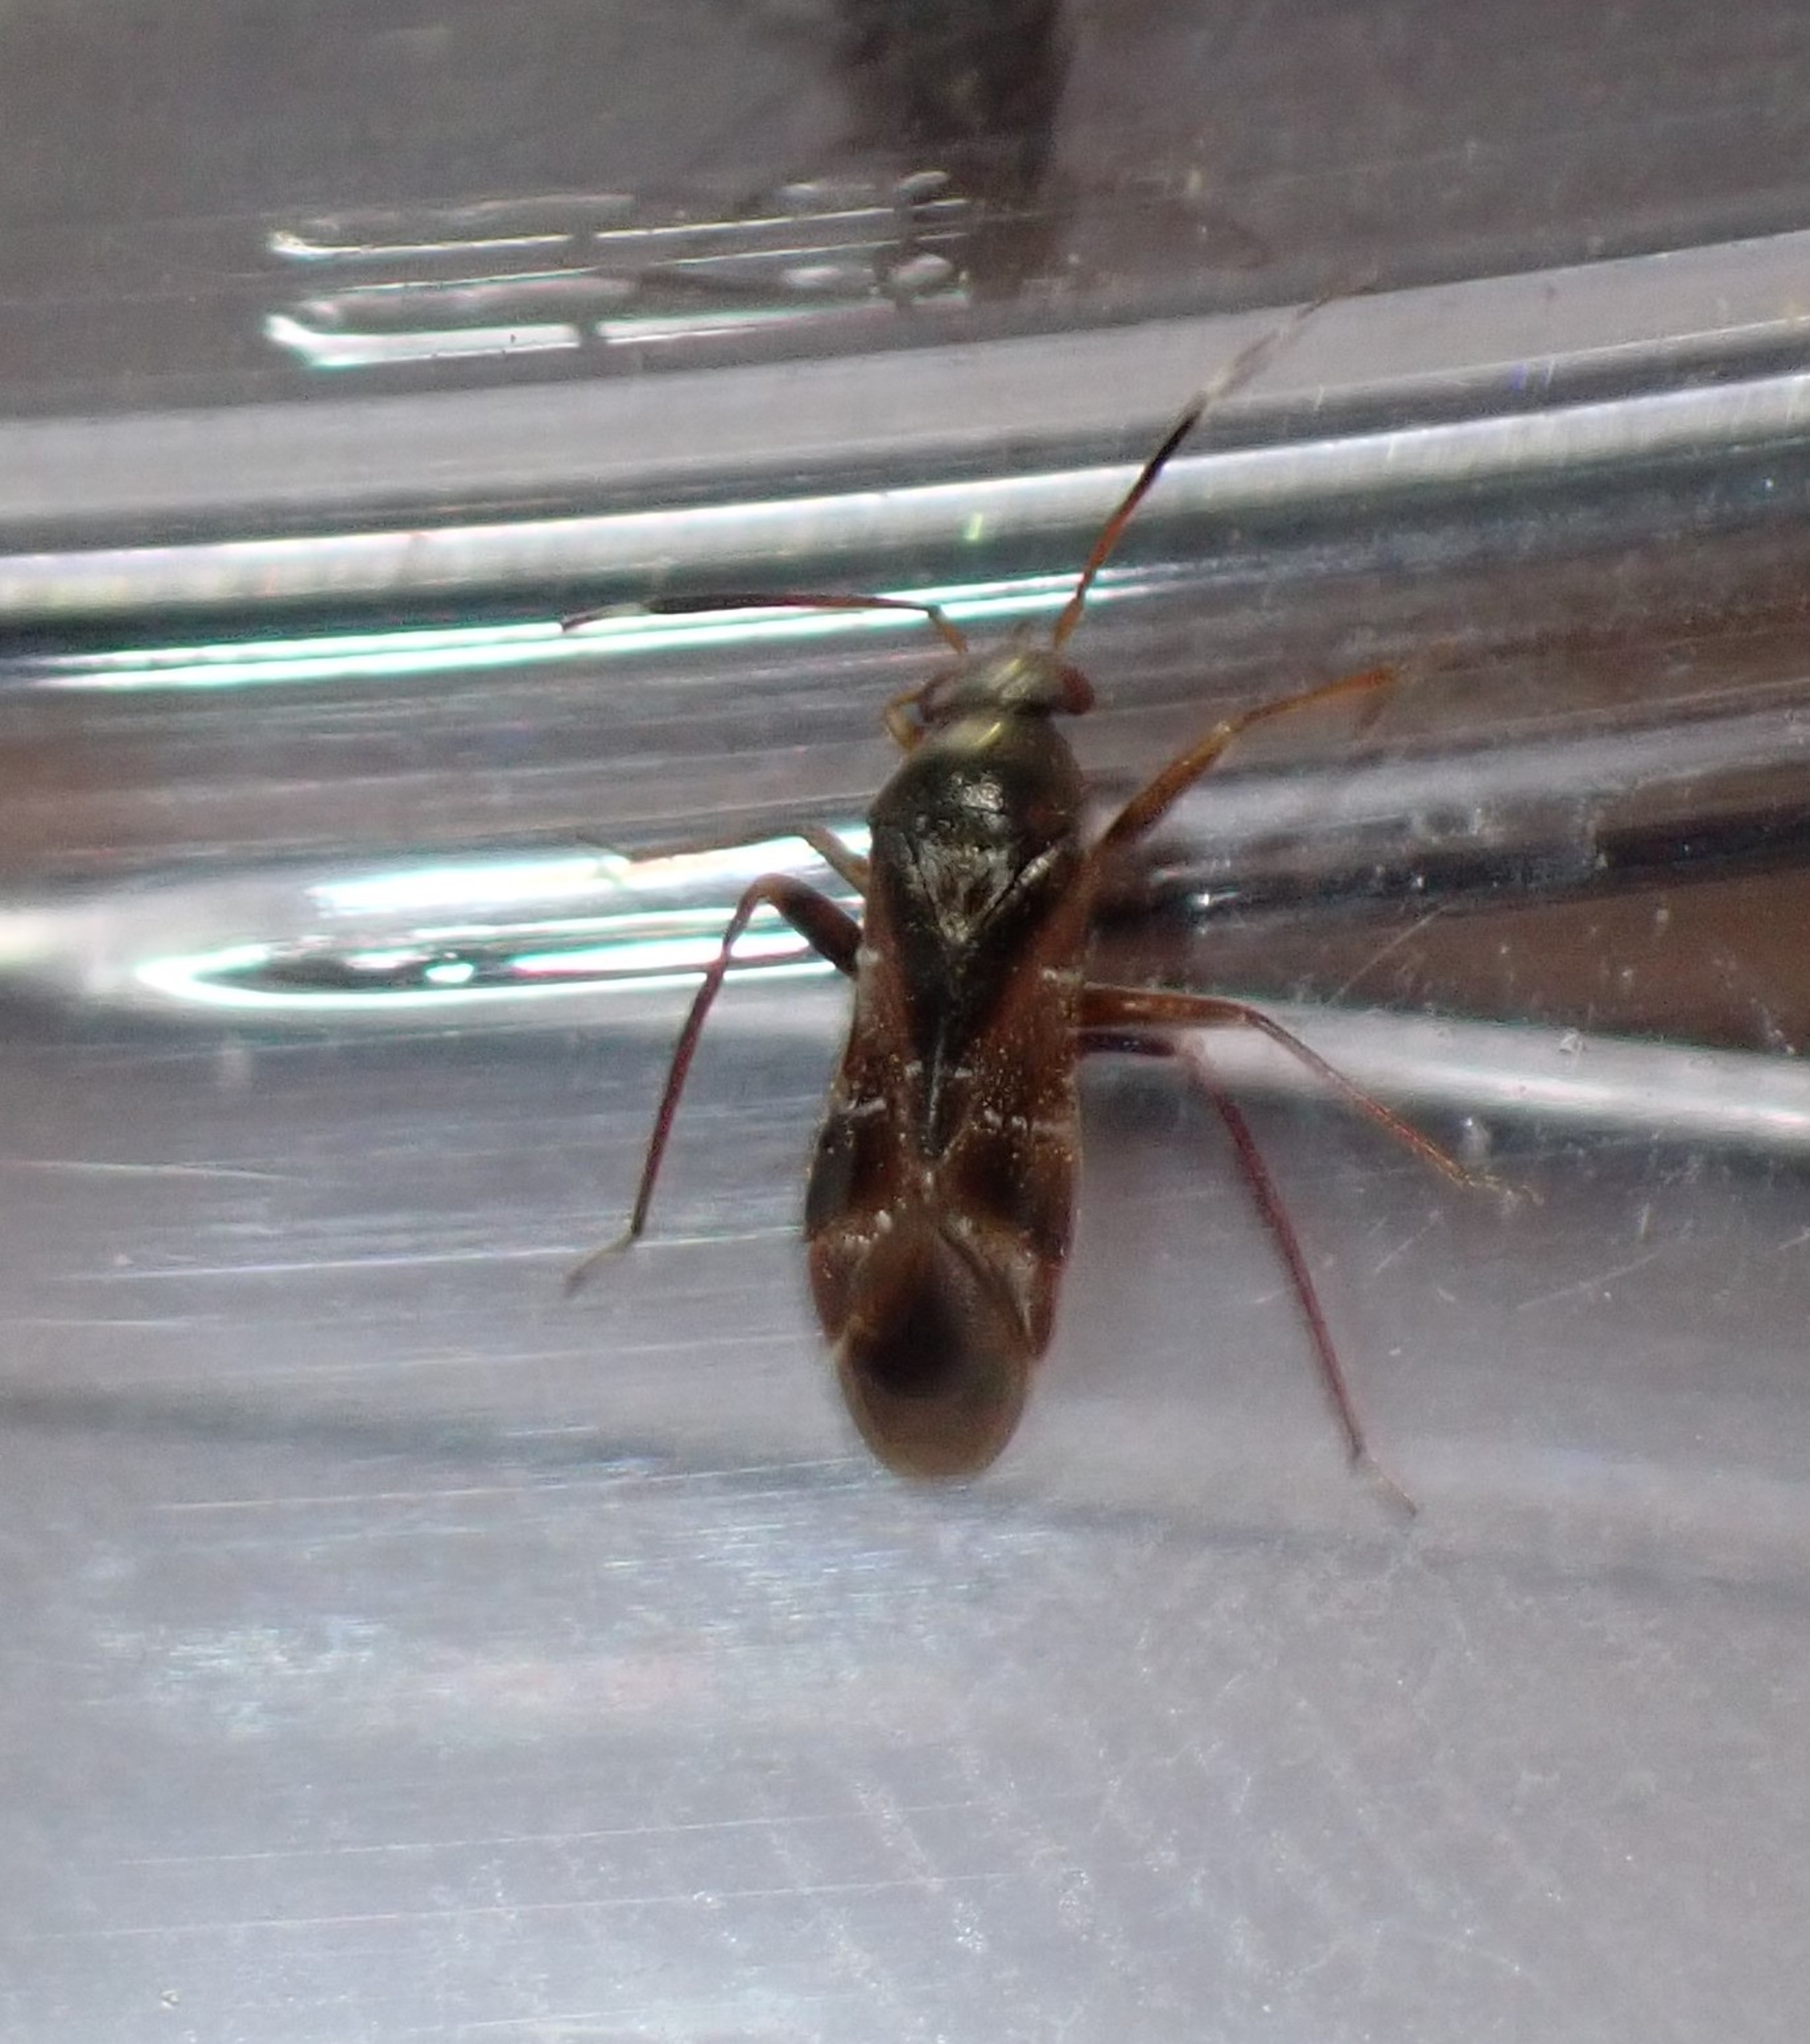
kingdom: Animalia
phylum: Arthropoda
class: Insecta
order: Hemiptera
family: Miridae
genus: Pilophorus
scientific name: Pilophorus clavatus
